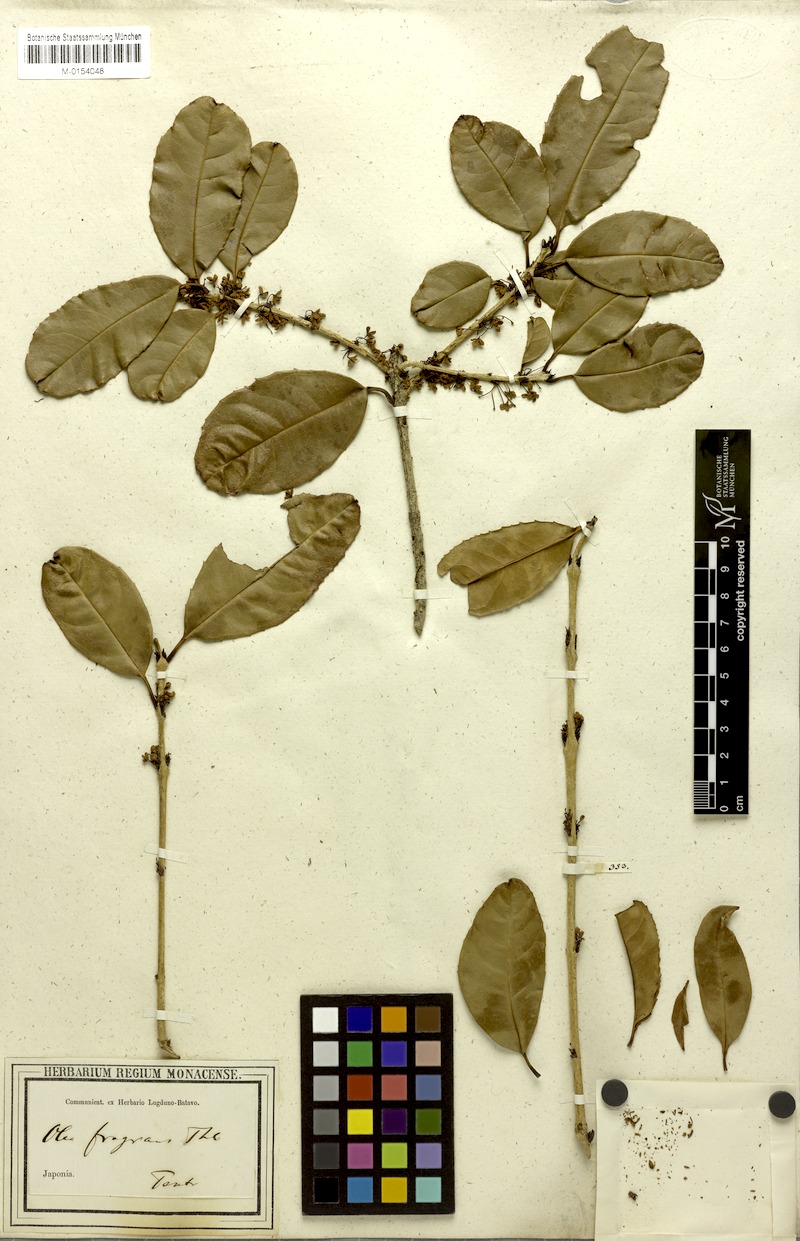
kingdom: Plantae
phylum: Tracheophyta
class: Magnoliopsida
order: Lamiales
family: Oleaceae
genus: Osmanthus
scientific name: Osmanthus fragrans
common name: Sweet osmanthus
